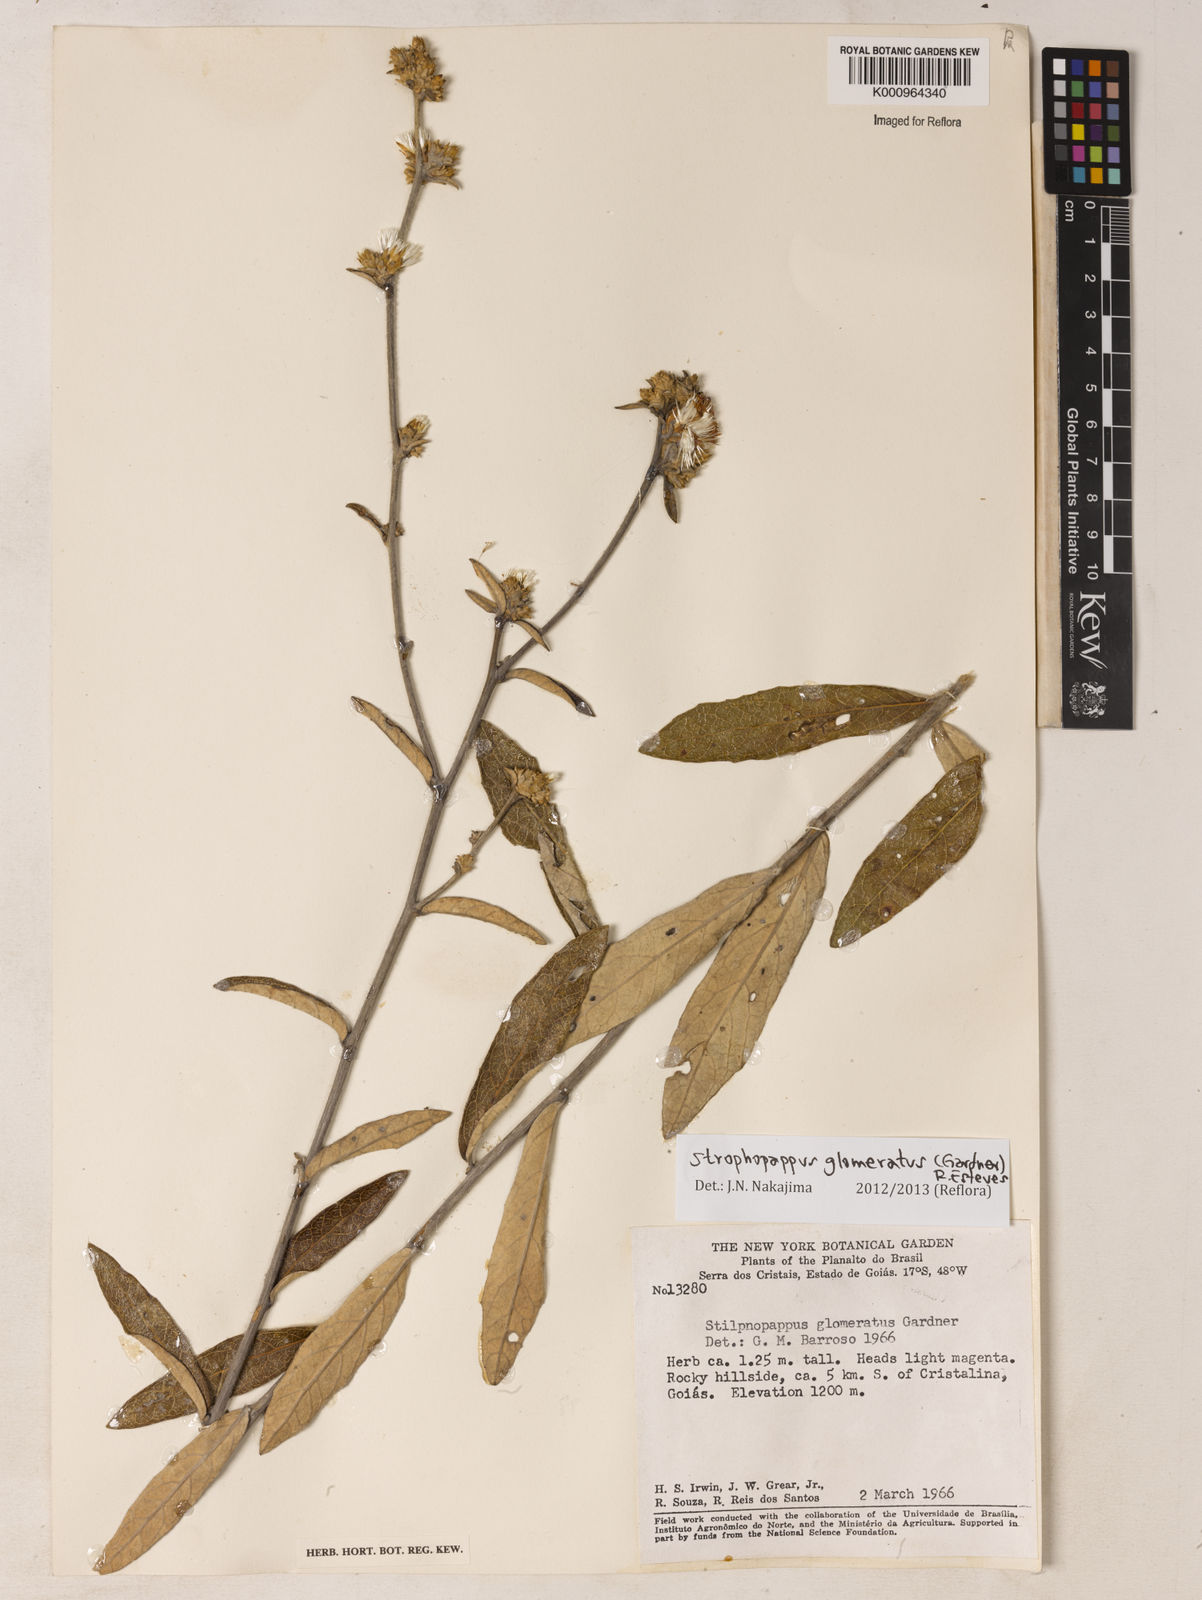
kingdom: Plantae
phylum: Tracheophyta
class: Magnoliopsida
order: Asterales
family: Asteraceae
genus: Stilpnopappus
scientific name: Stilpnopappus glomeratus
